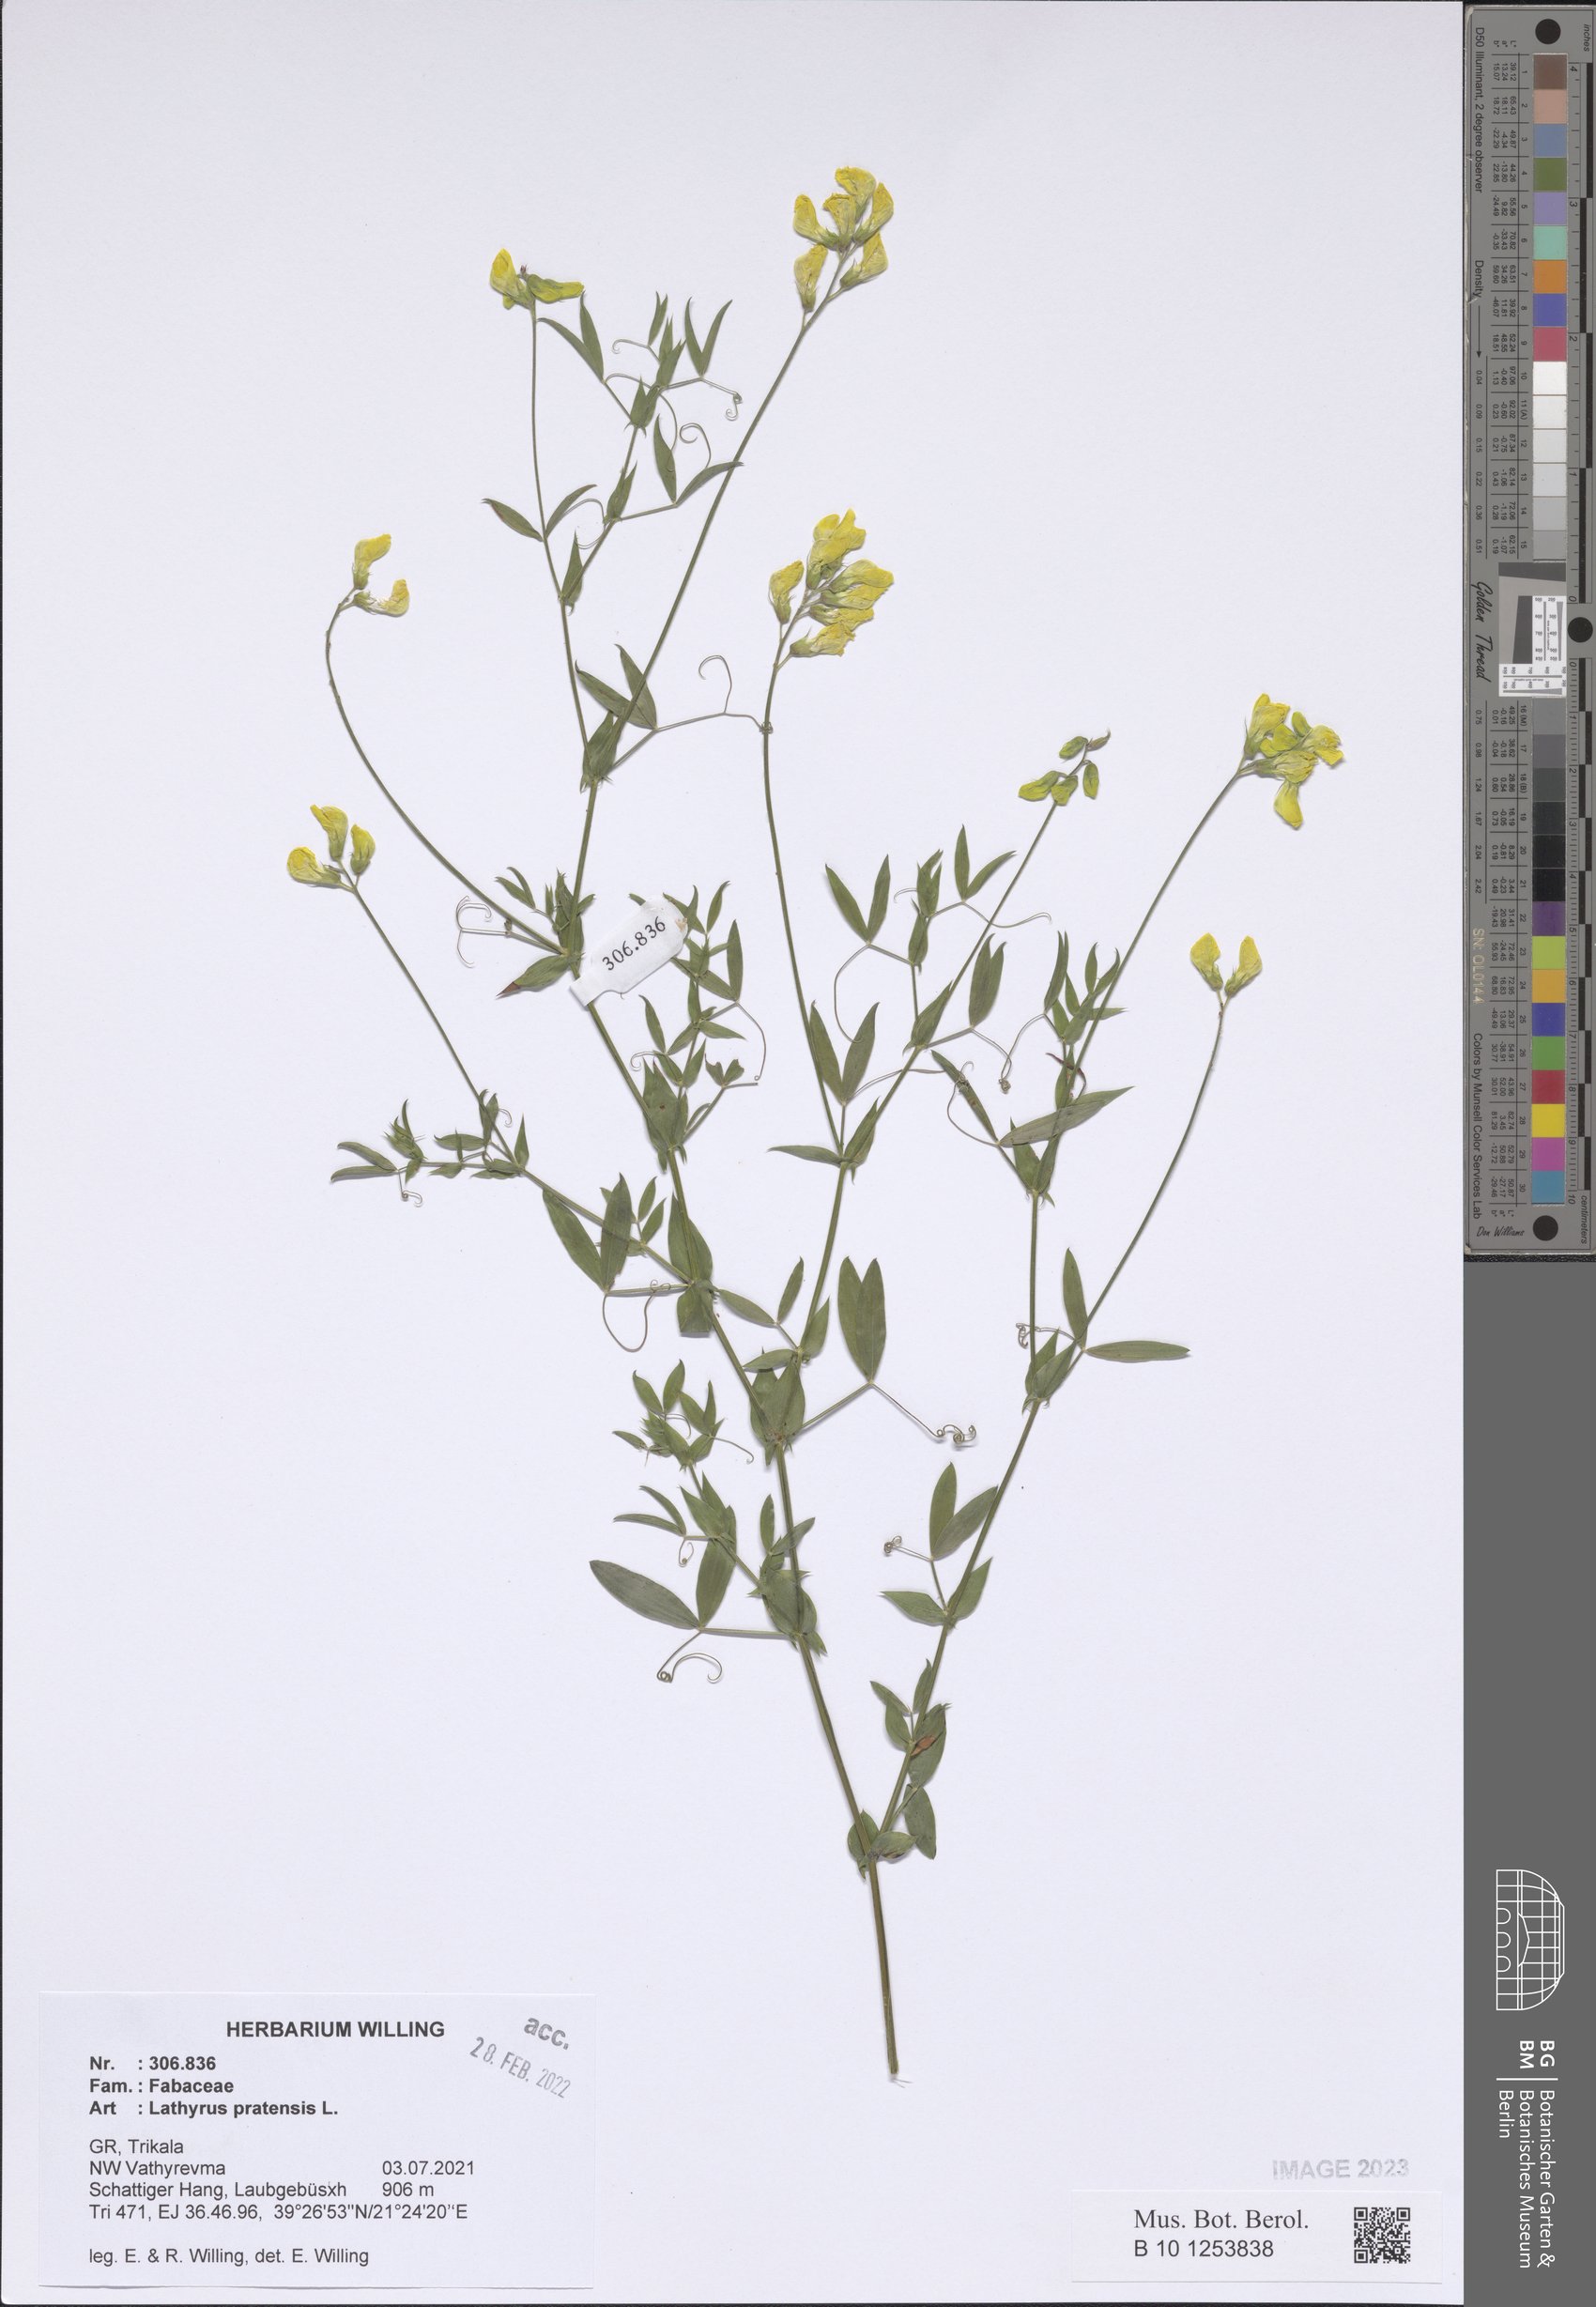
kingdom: Plantae
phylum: Tracheophyta
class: Magnoliopsida
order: Fabales
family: Fabaceae
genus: Lathyrus
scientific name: Lathyrus pratensis
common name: Meadow vetchling
